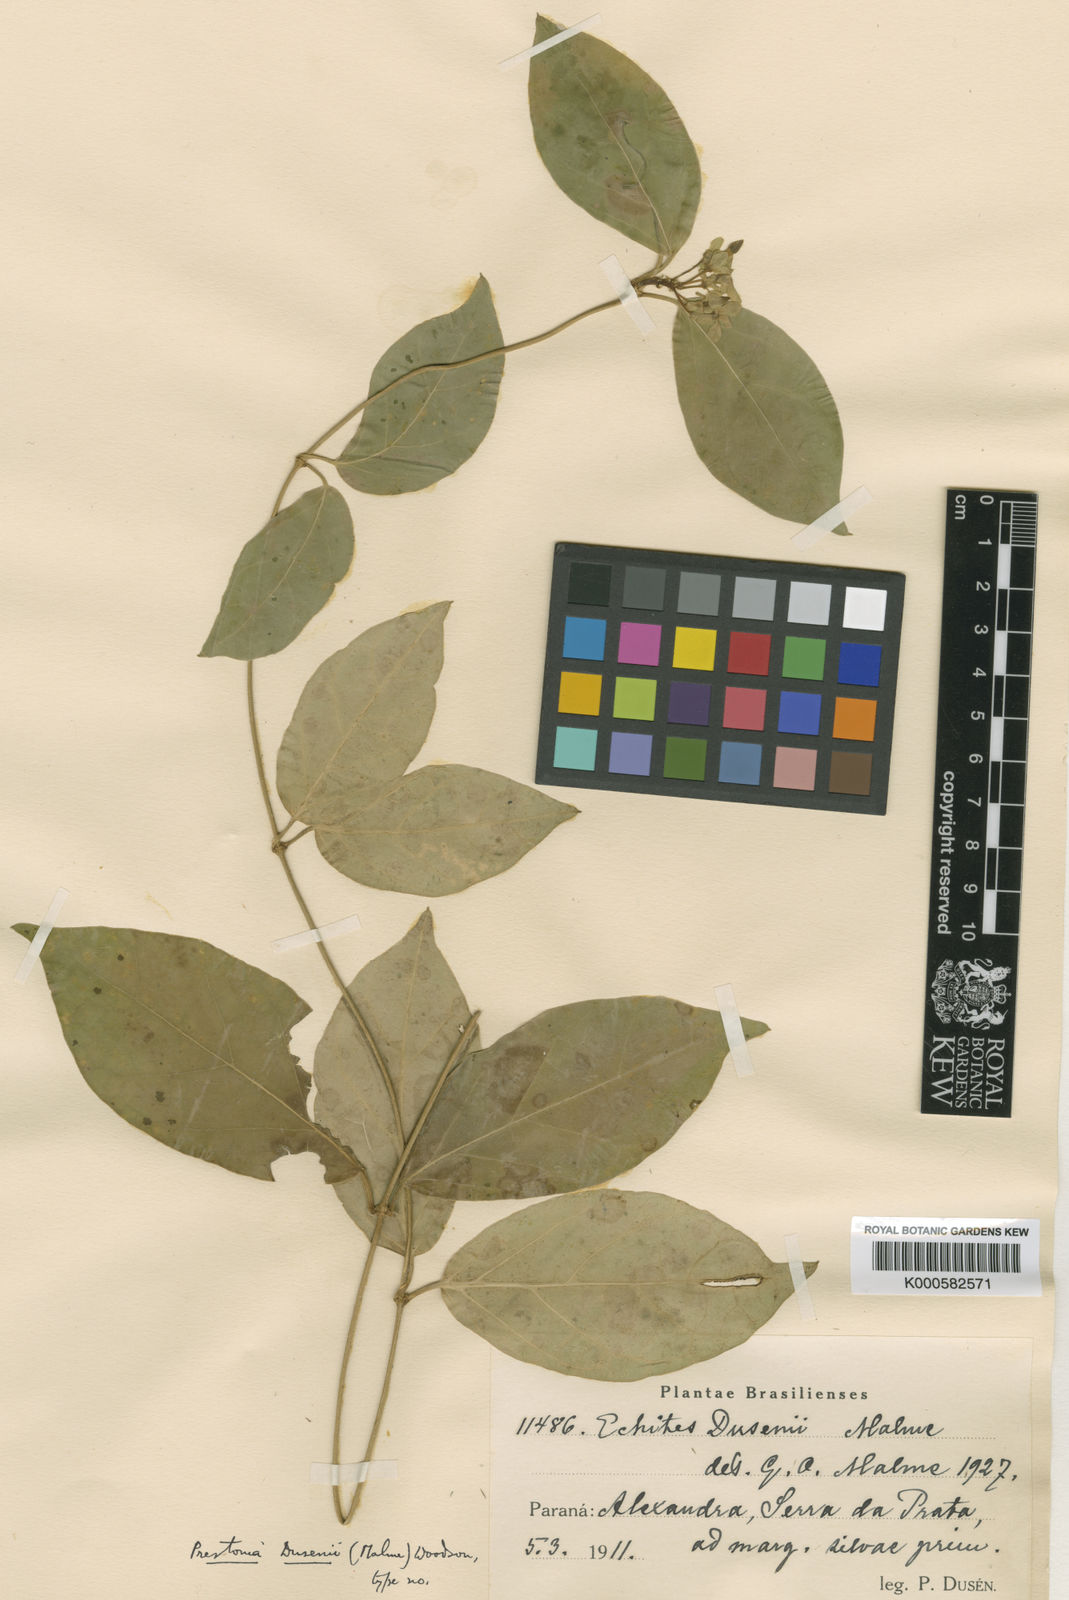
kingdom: Plantae
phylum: Tracheophyta
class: Magnoliopsida
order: Gentianales
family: Apocynaceae
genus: Prestonia
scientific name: Prestonia dusenii
